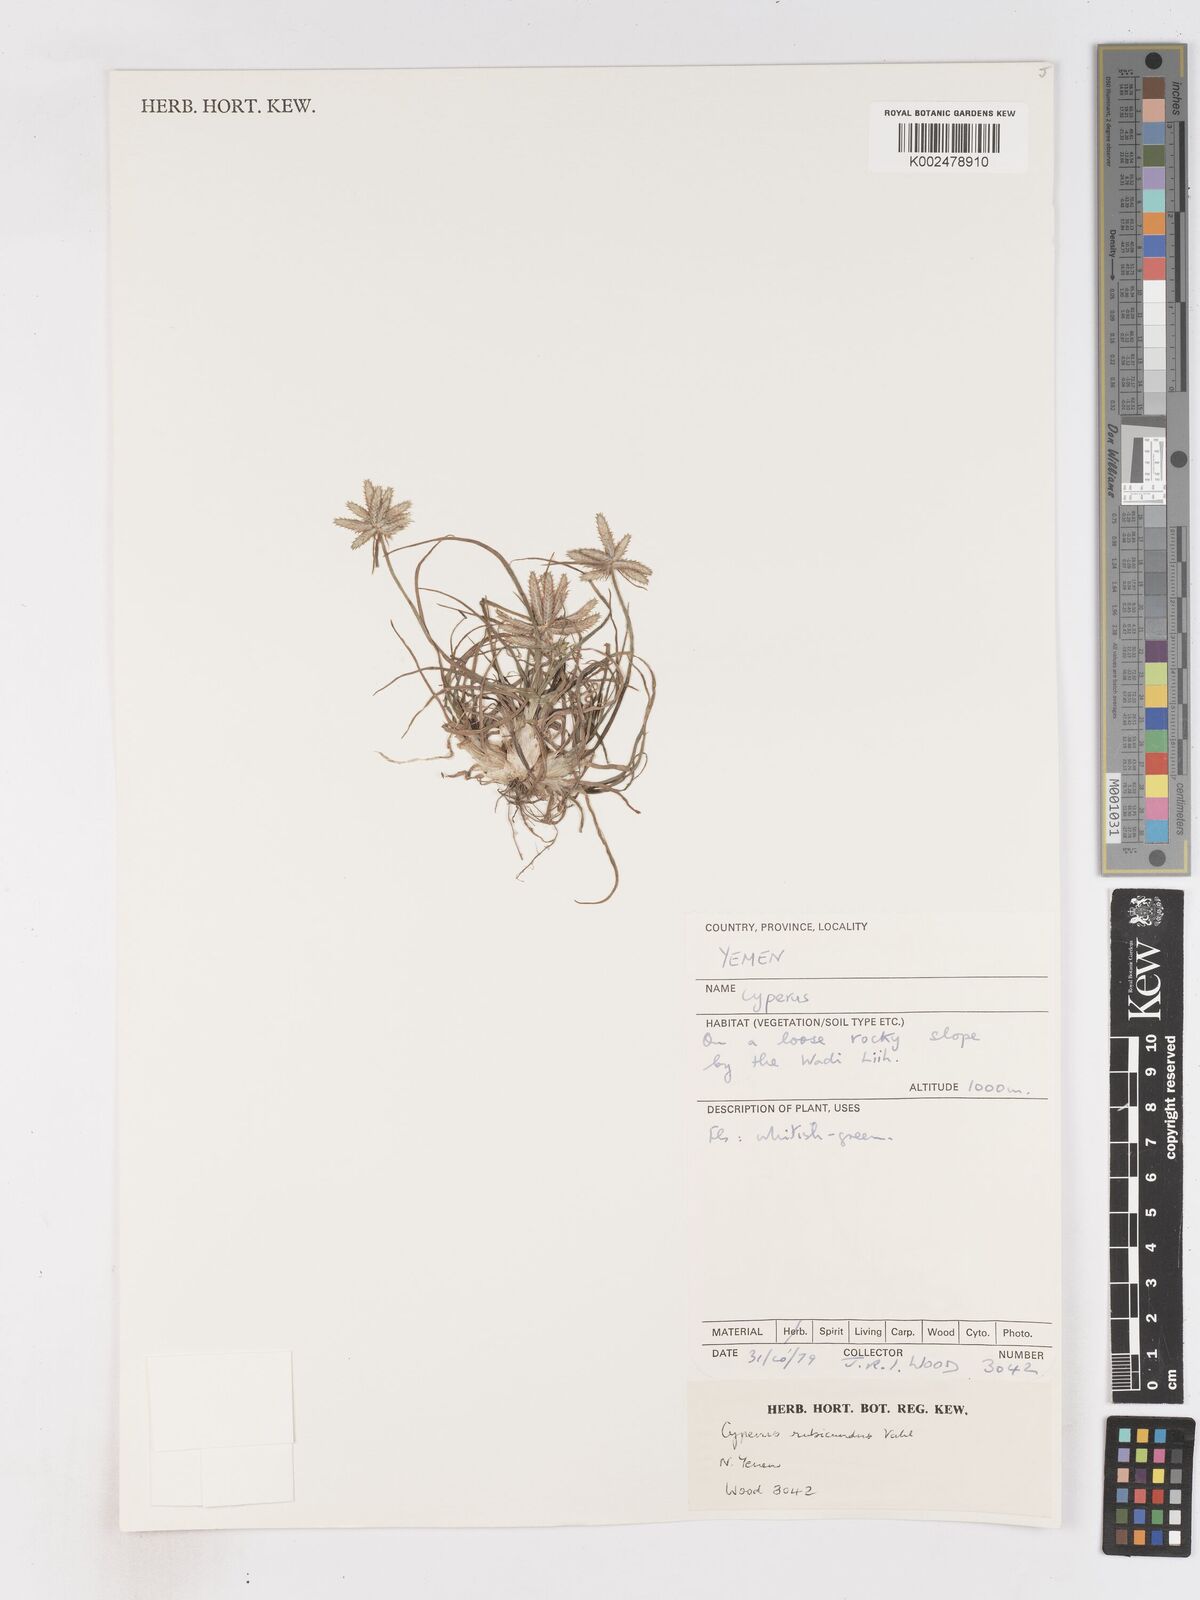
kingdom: Plantae
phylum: Tracheophyta
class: Liliopsida
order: Poales
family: Cyperaceae
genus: Cyperus
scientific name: Cyperus rubicundus
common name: Coco-grass
